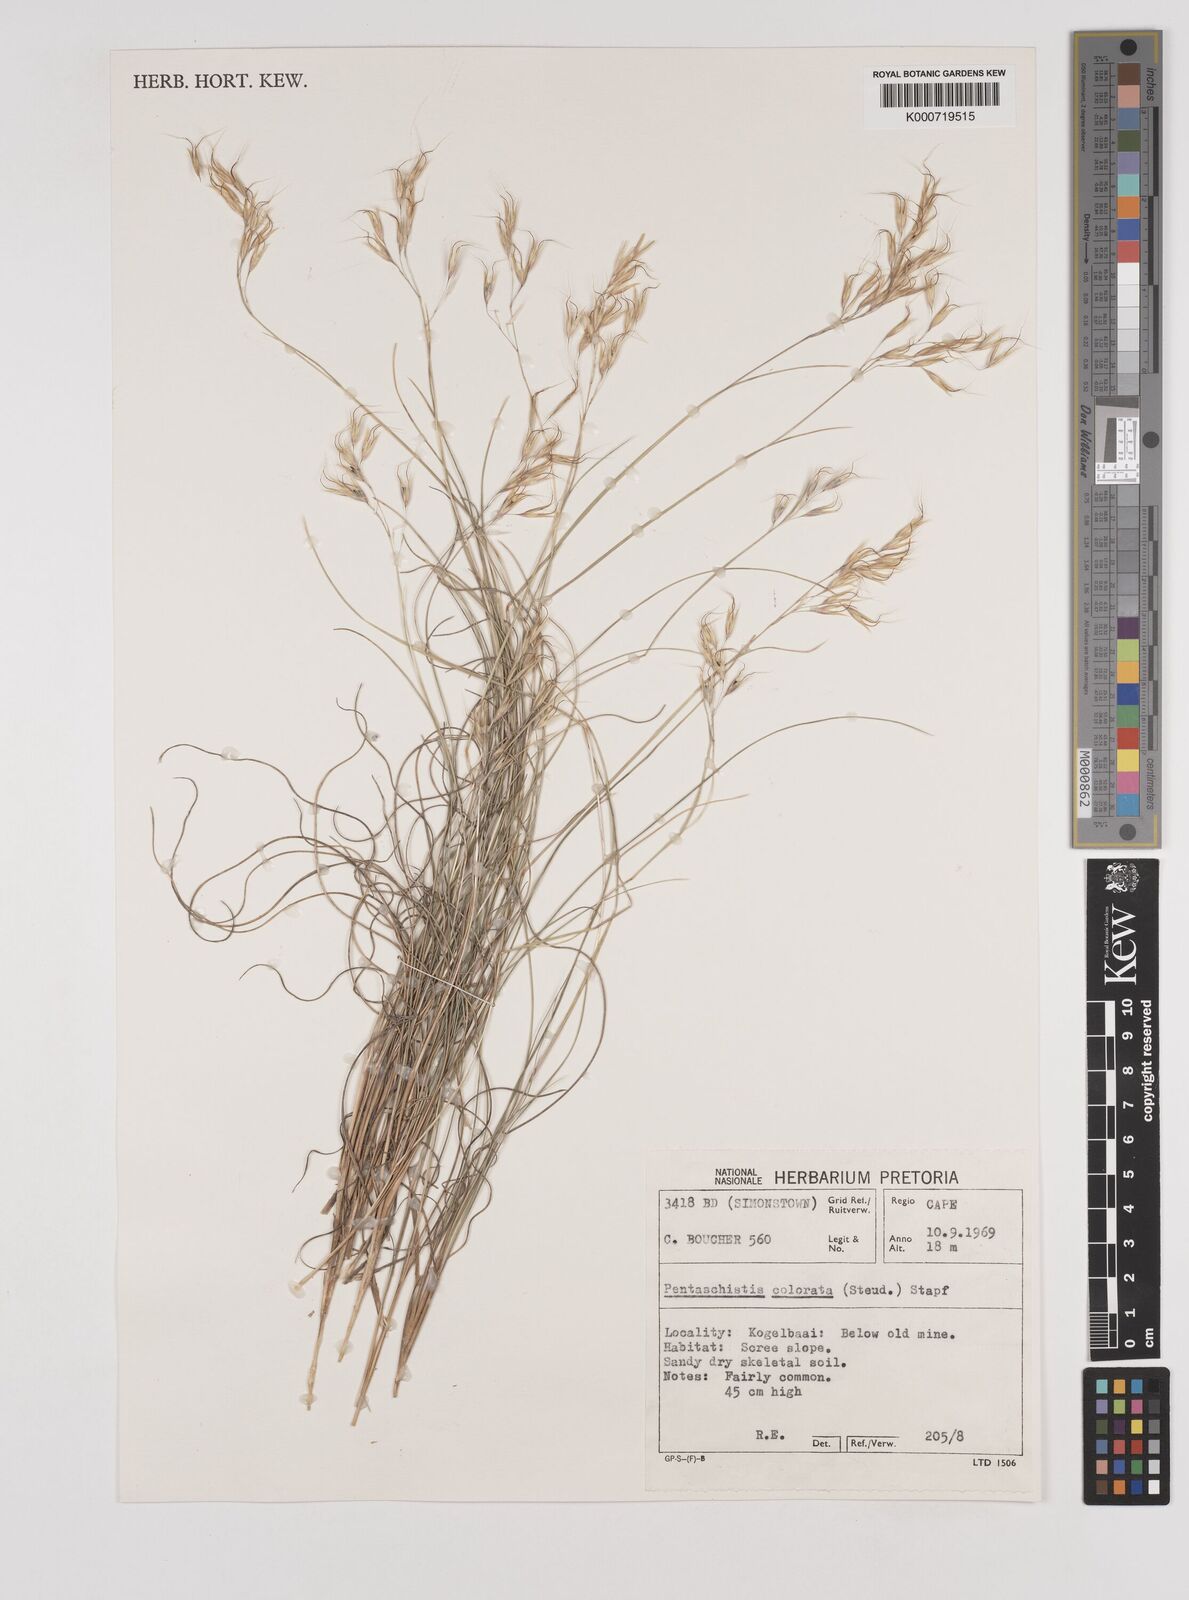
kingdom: Plantae
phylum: Tracheophyta
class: Liliopsida
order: Poales
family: Poaceae
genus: Pentameris
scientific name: Pentameris colorata
